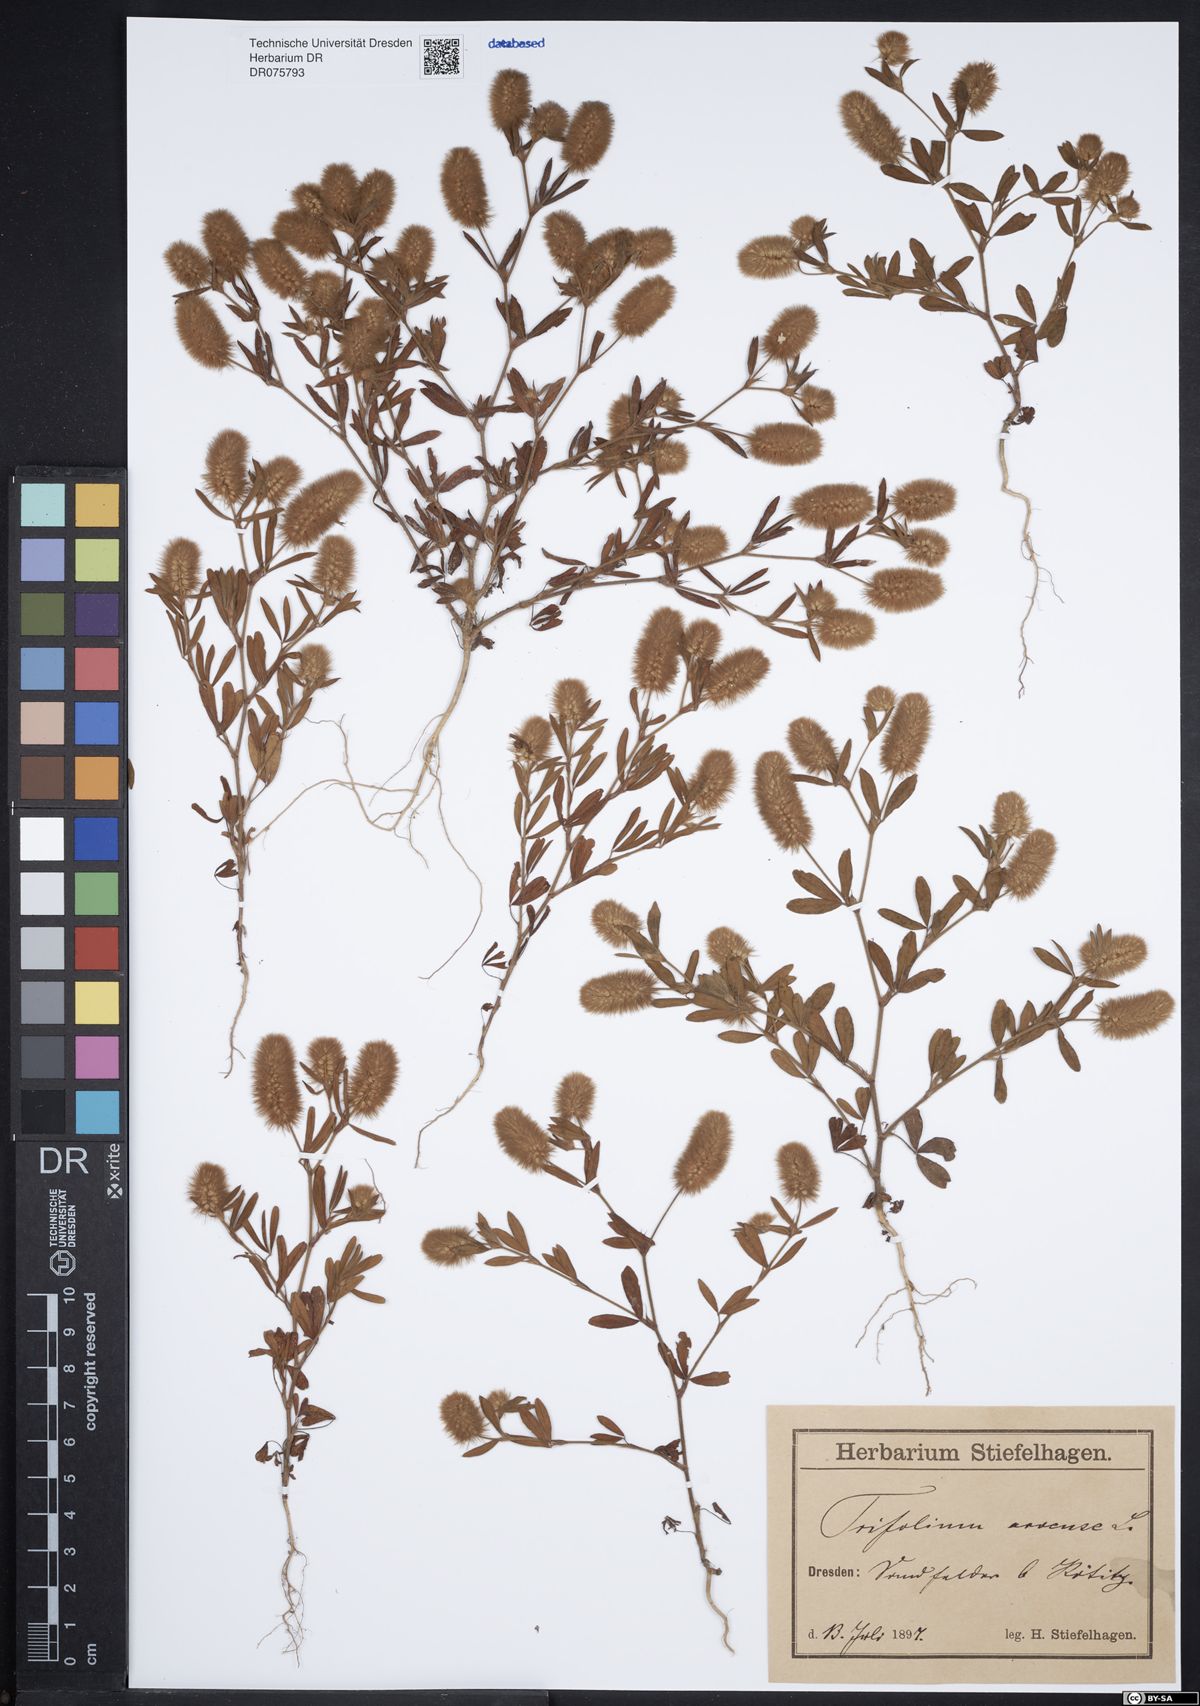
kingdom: Plantae
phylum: Tracheophyta
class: Magnoliopsida
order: Fabales
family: Fabaceae
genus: Trifolium
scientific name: Trifolium arvense
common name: Hare's-foot clover
